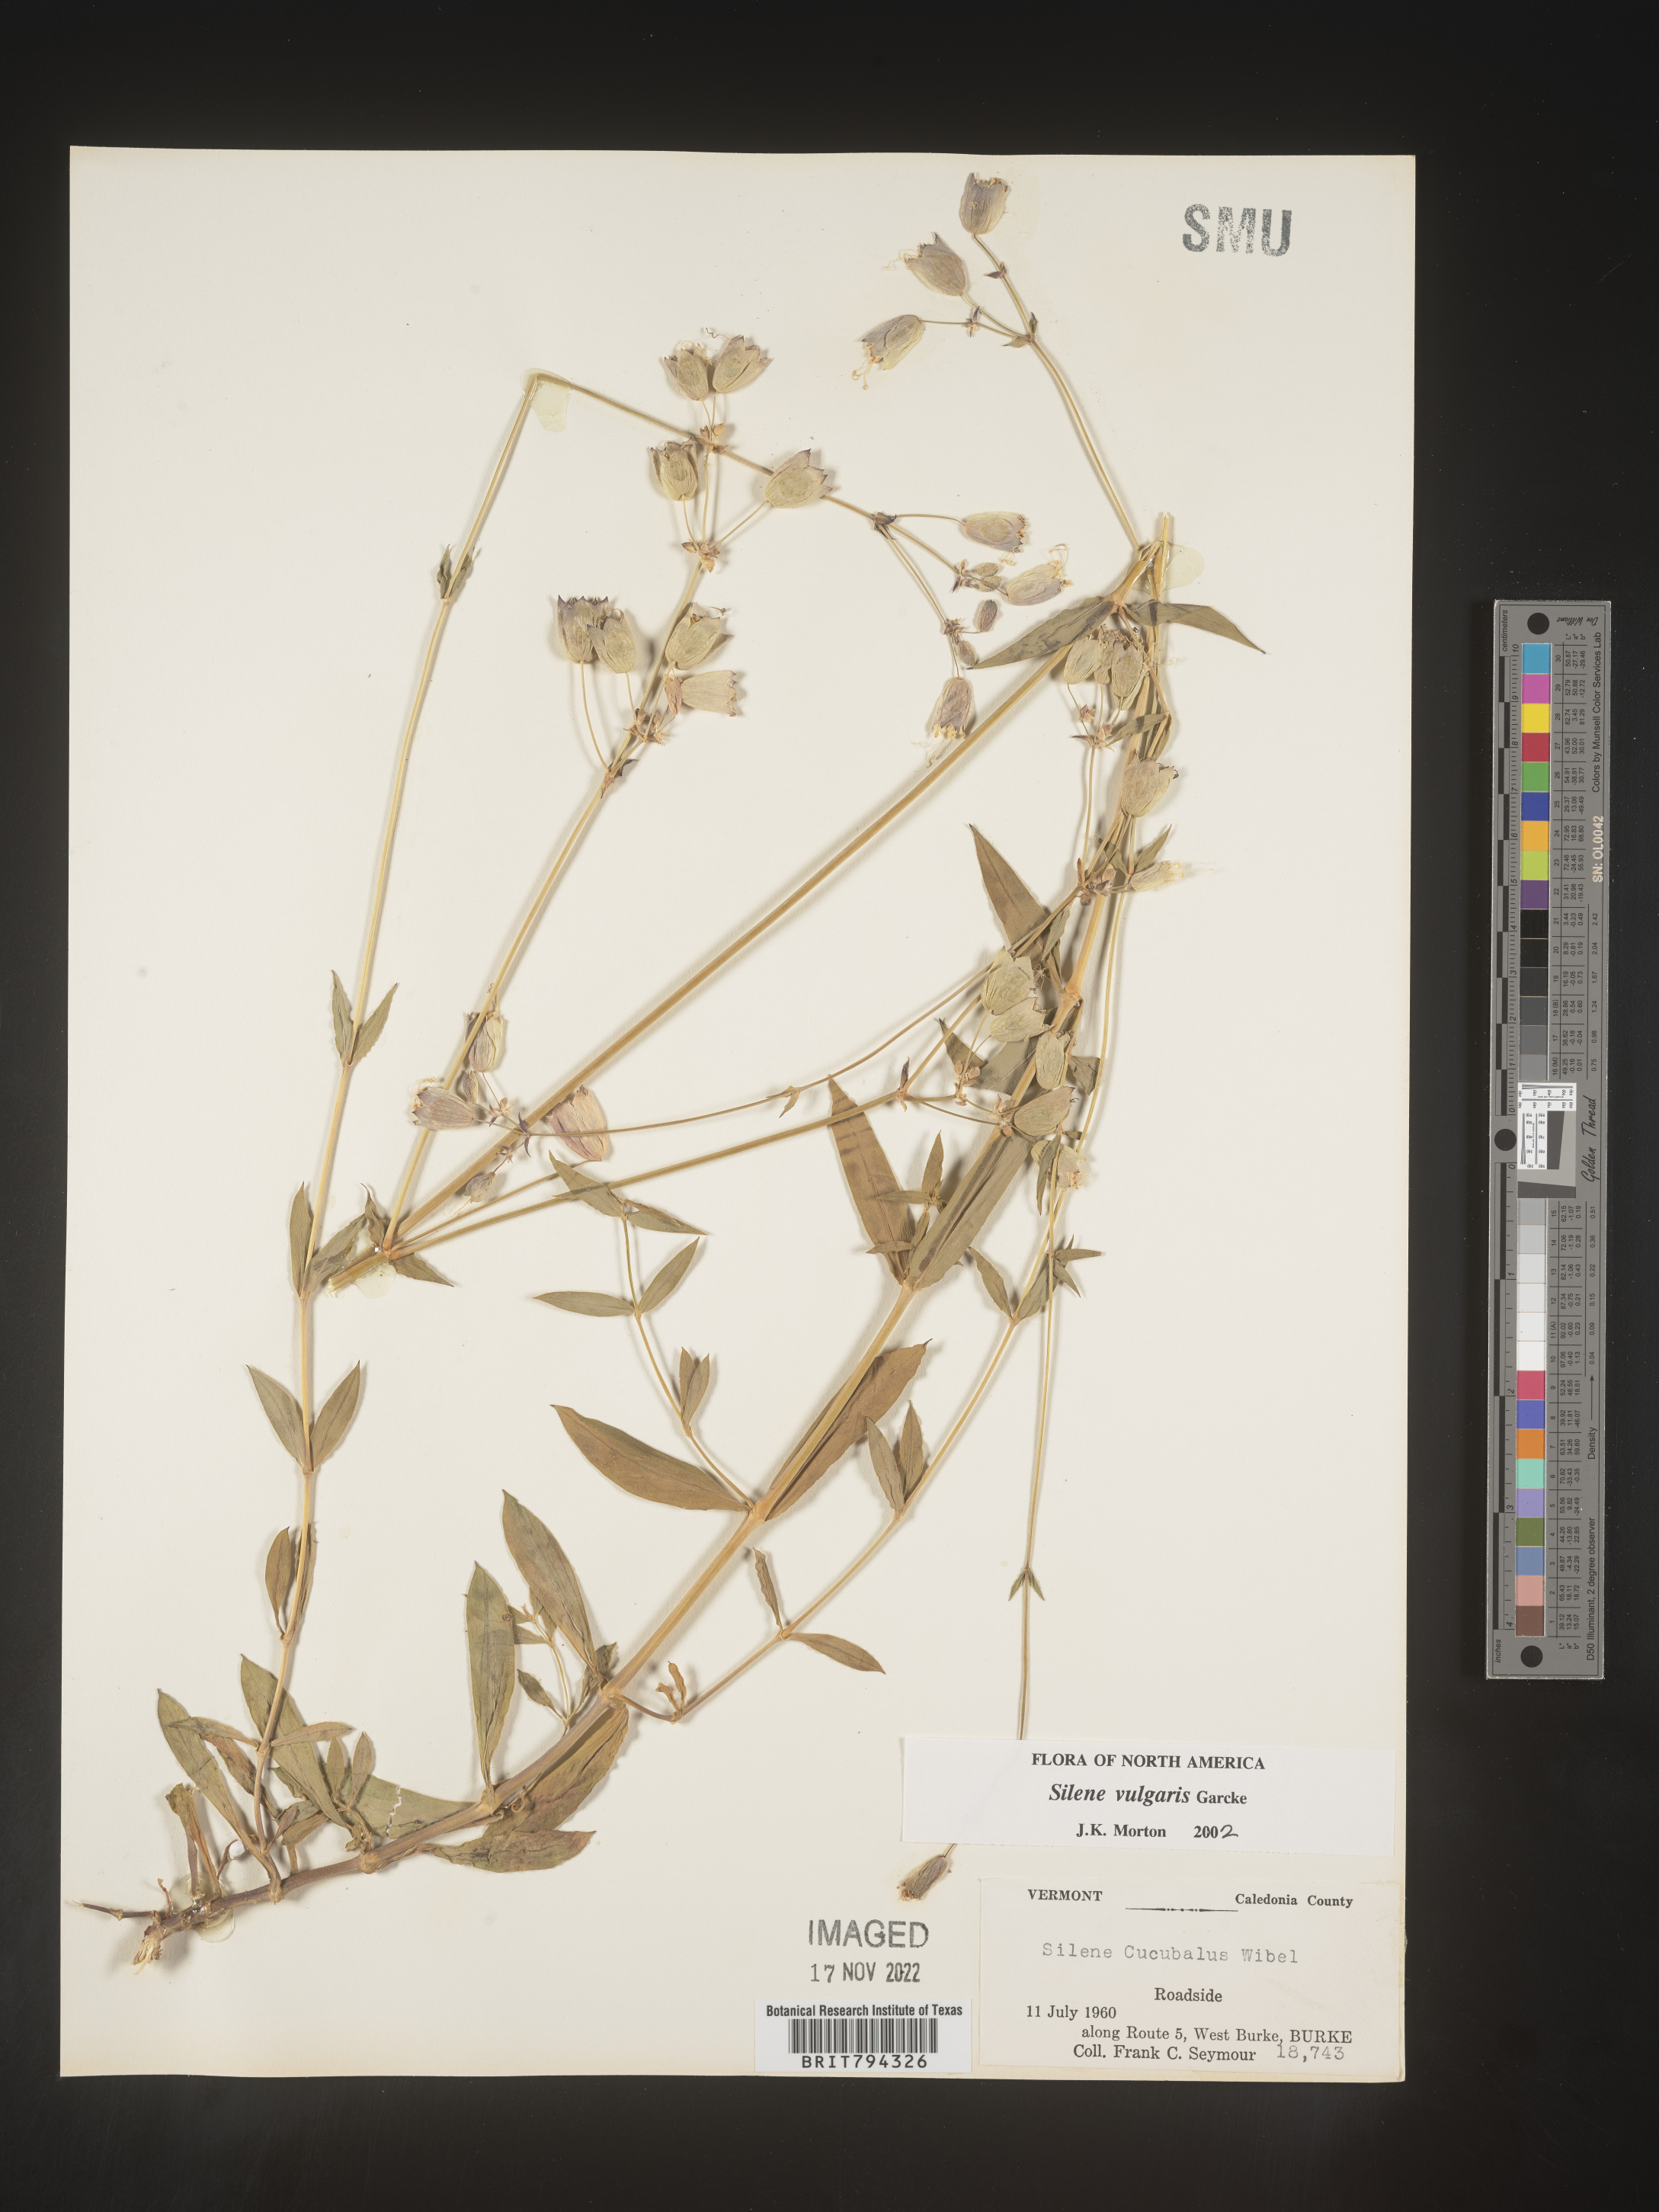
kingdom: Plantae
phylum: Tracheophyta
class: Magnoliopsida
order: Caryophyllales
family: Caryophyllaceae
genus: Silene
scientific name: Silene vulgaris
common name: Bladder campion
